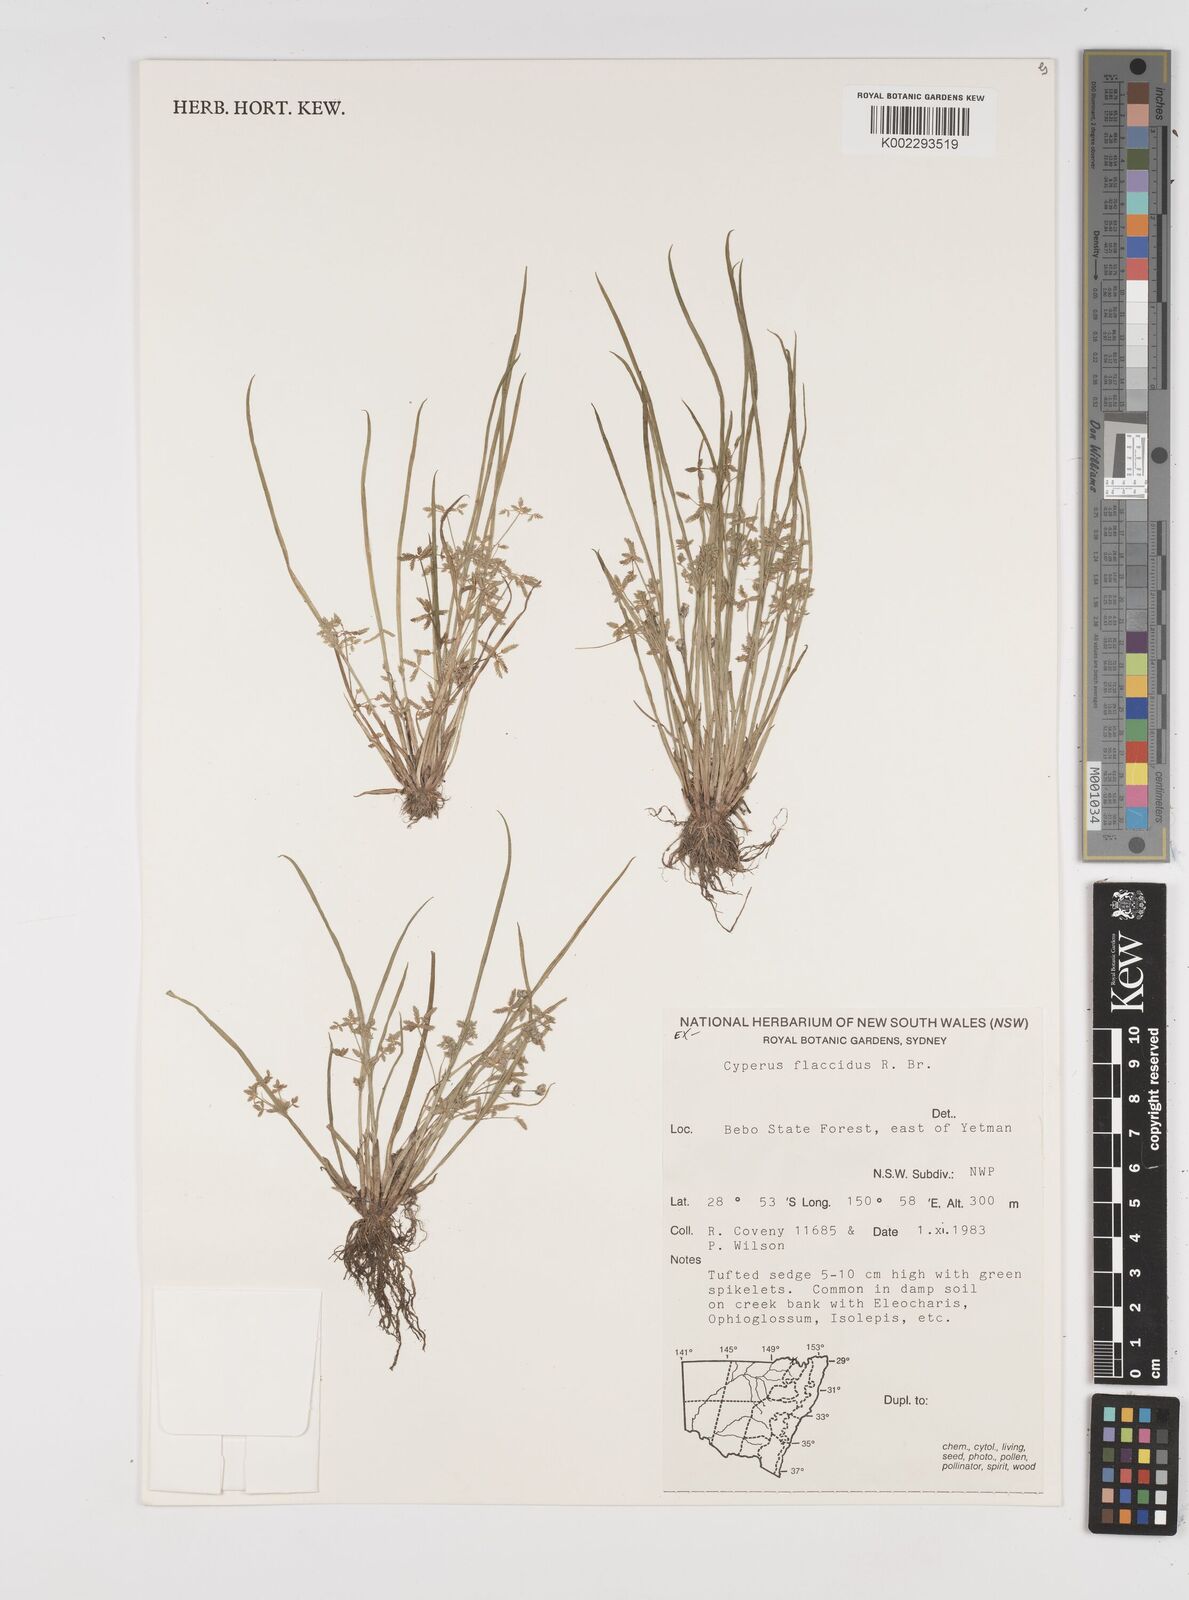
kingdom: Plantae
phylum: Tracheophyta
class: Liliopsida
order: Poales
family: Cyperaceae
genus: Cyperus
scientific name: Cyperus flaccidus
